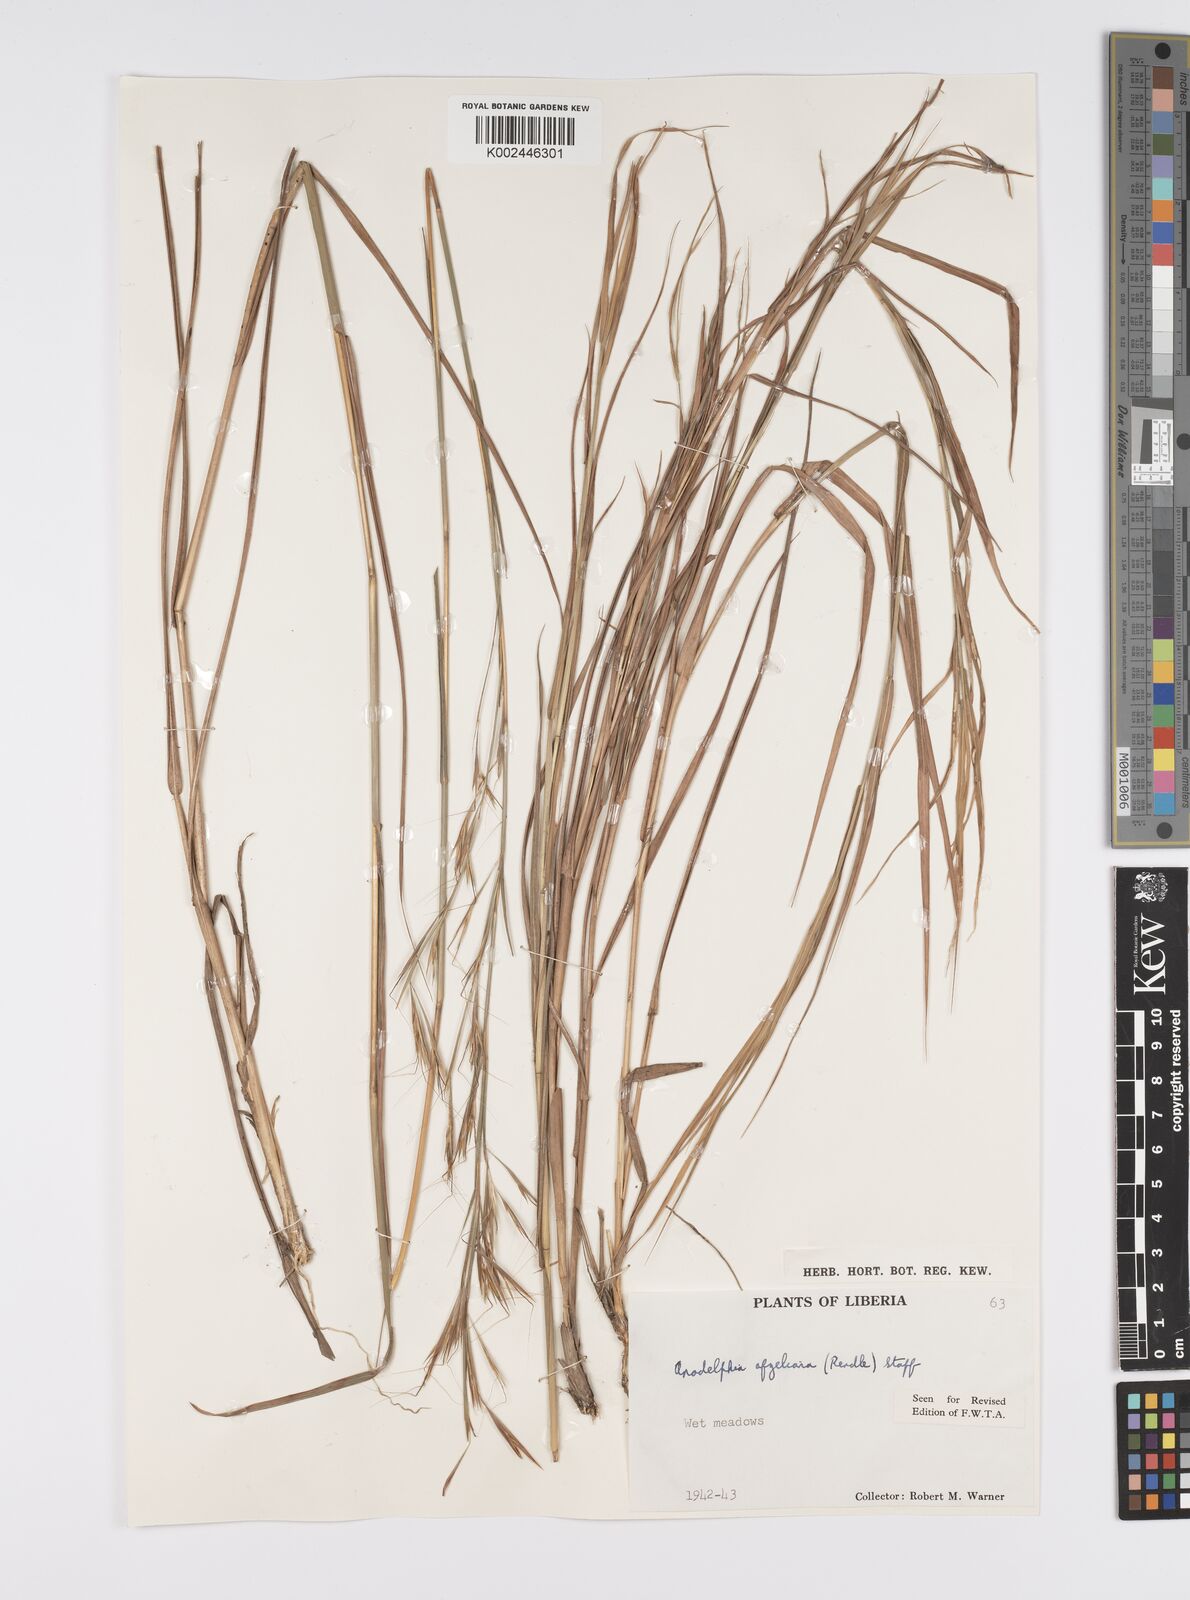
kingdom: Plantae
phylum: Tracheophyta
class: Liliopsida
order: Poales
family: Poaceae
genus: Anadelphia
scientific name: Anadelphia afzeliana
